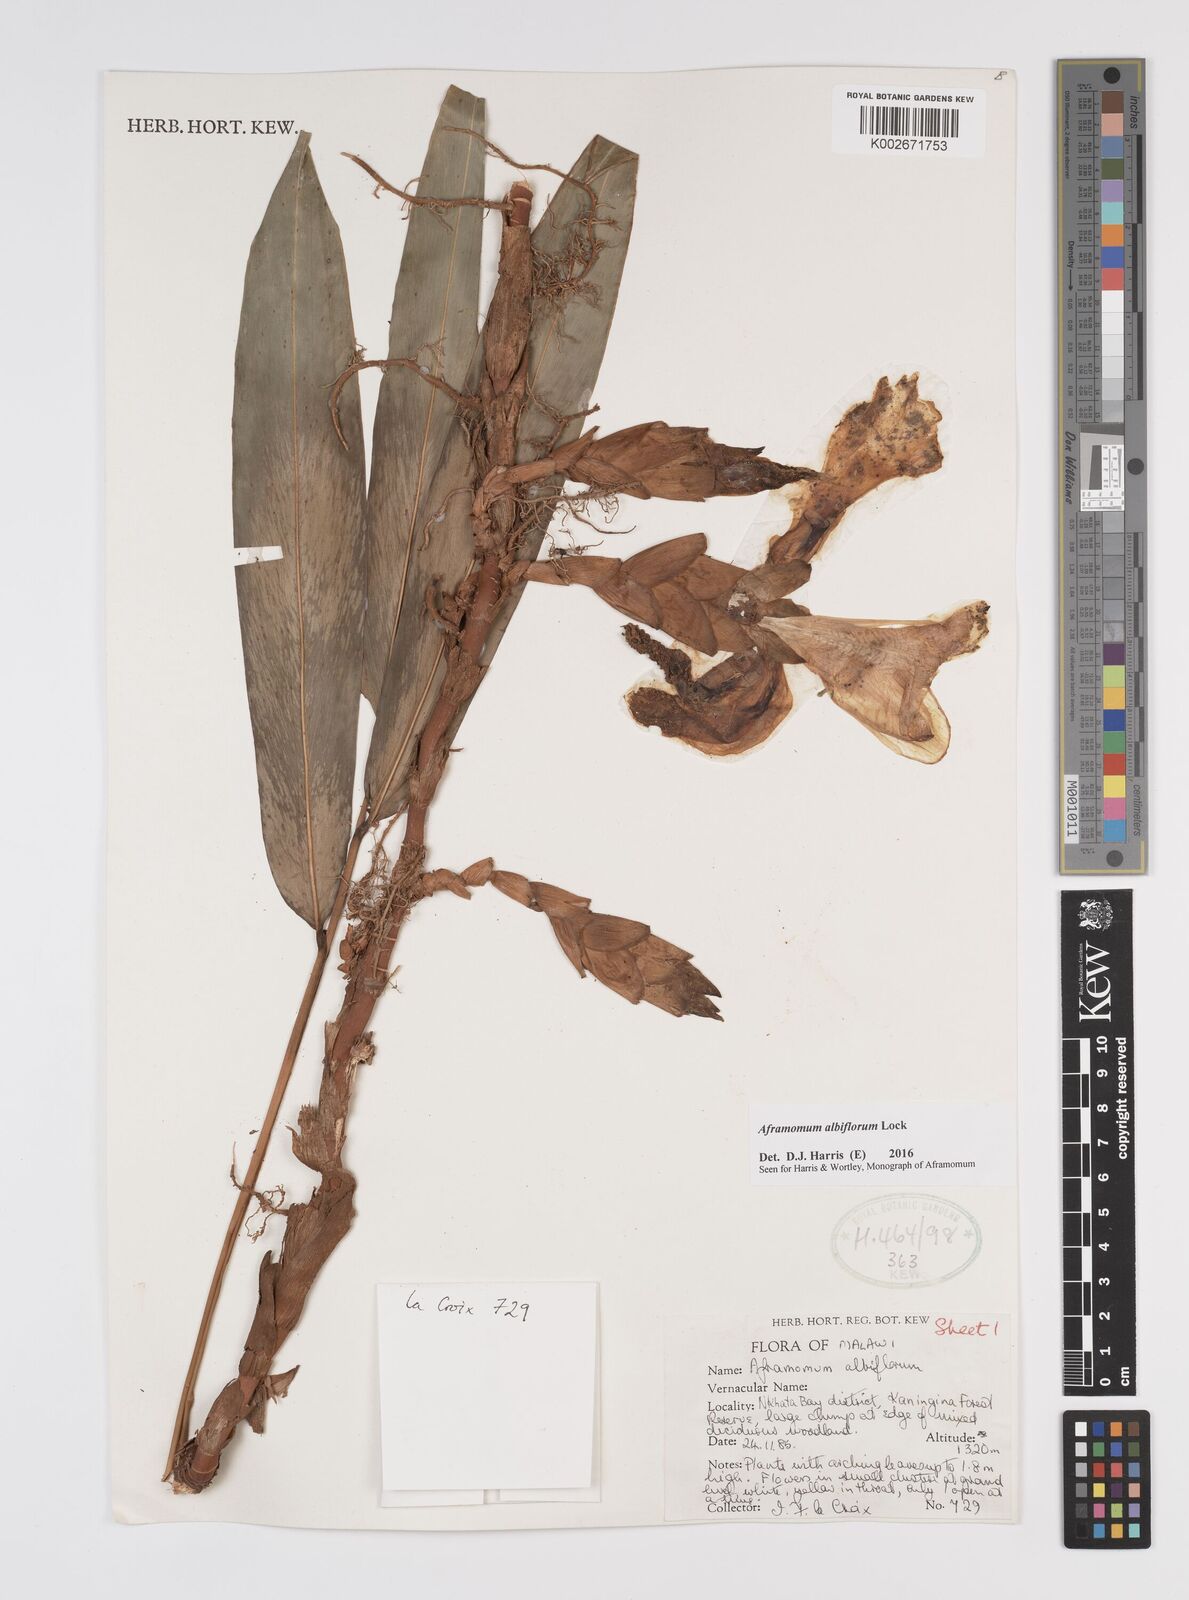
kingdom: Plantae
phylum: Tracheophyta
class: Liliopsida
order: Zingiberales
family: Zingiberaceae
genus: Aframomum
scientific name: Aframomum albiflorum
